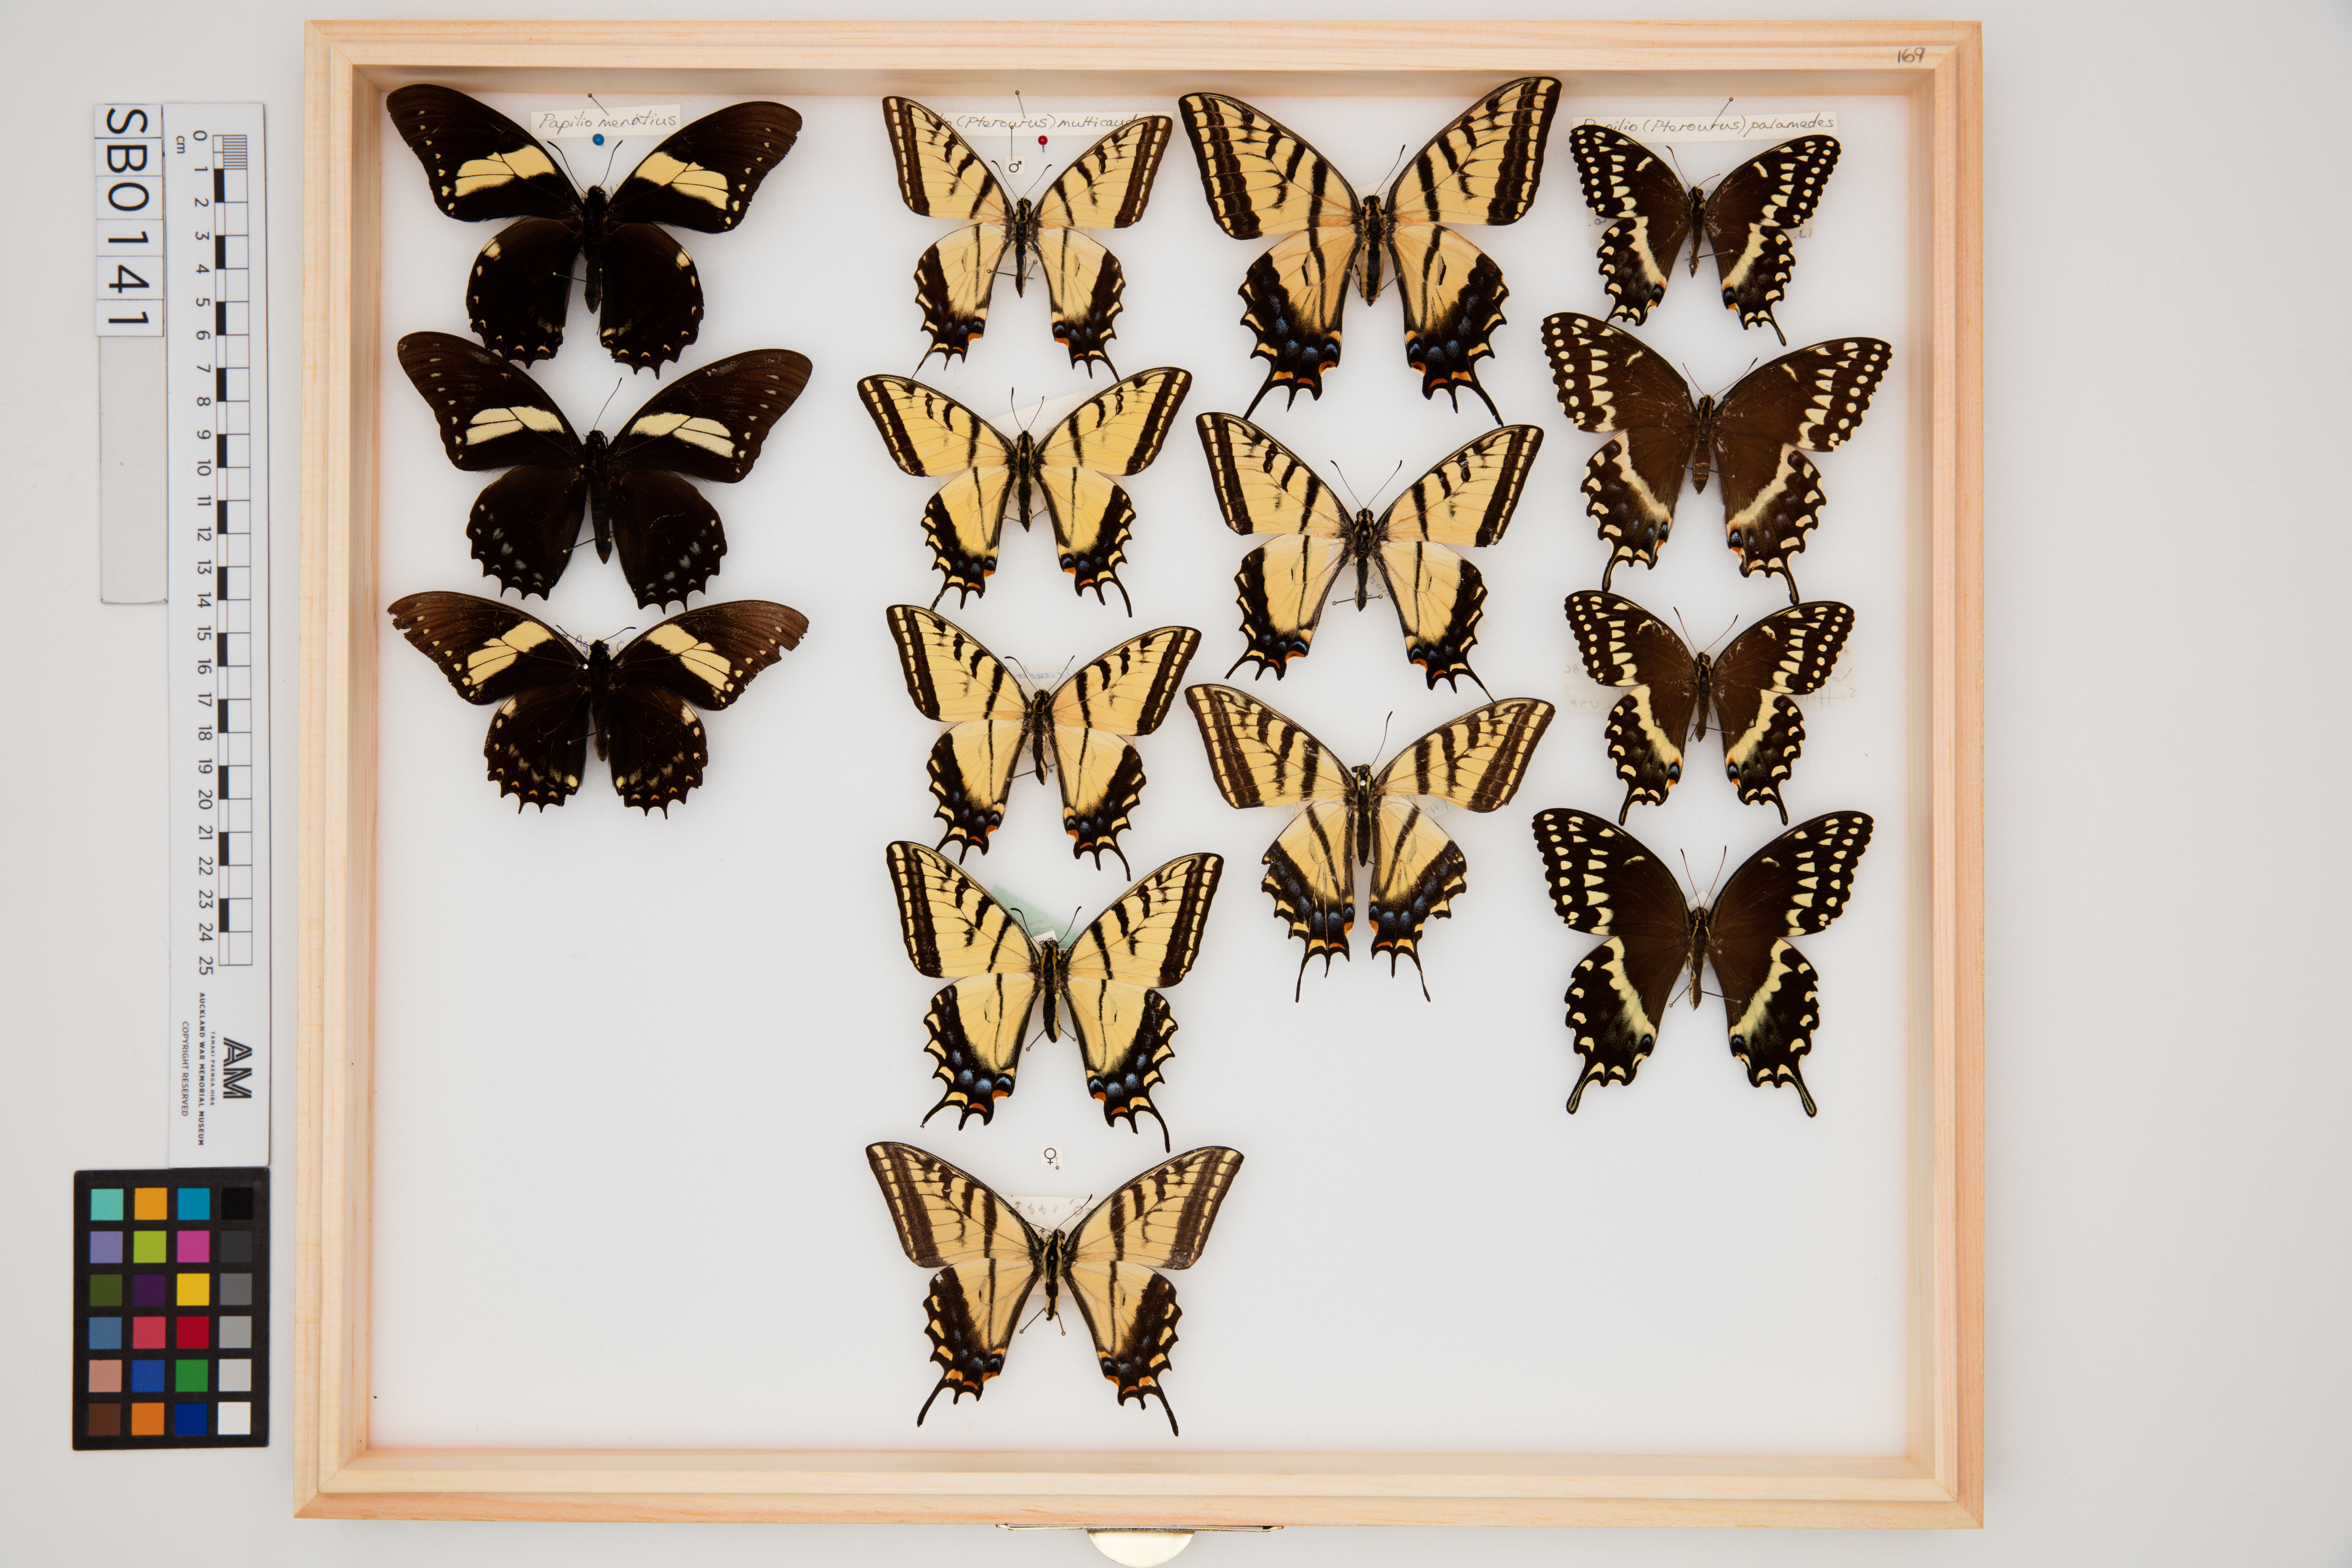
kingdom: Animalia
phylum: Arthropoda
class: Insecta
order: Lepidoptera
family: Papilionidae
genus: Papilio
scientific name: Papilio palamedes
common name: Palamedes swallowtail
